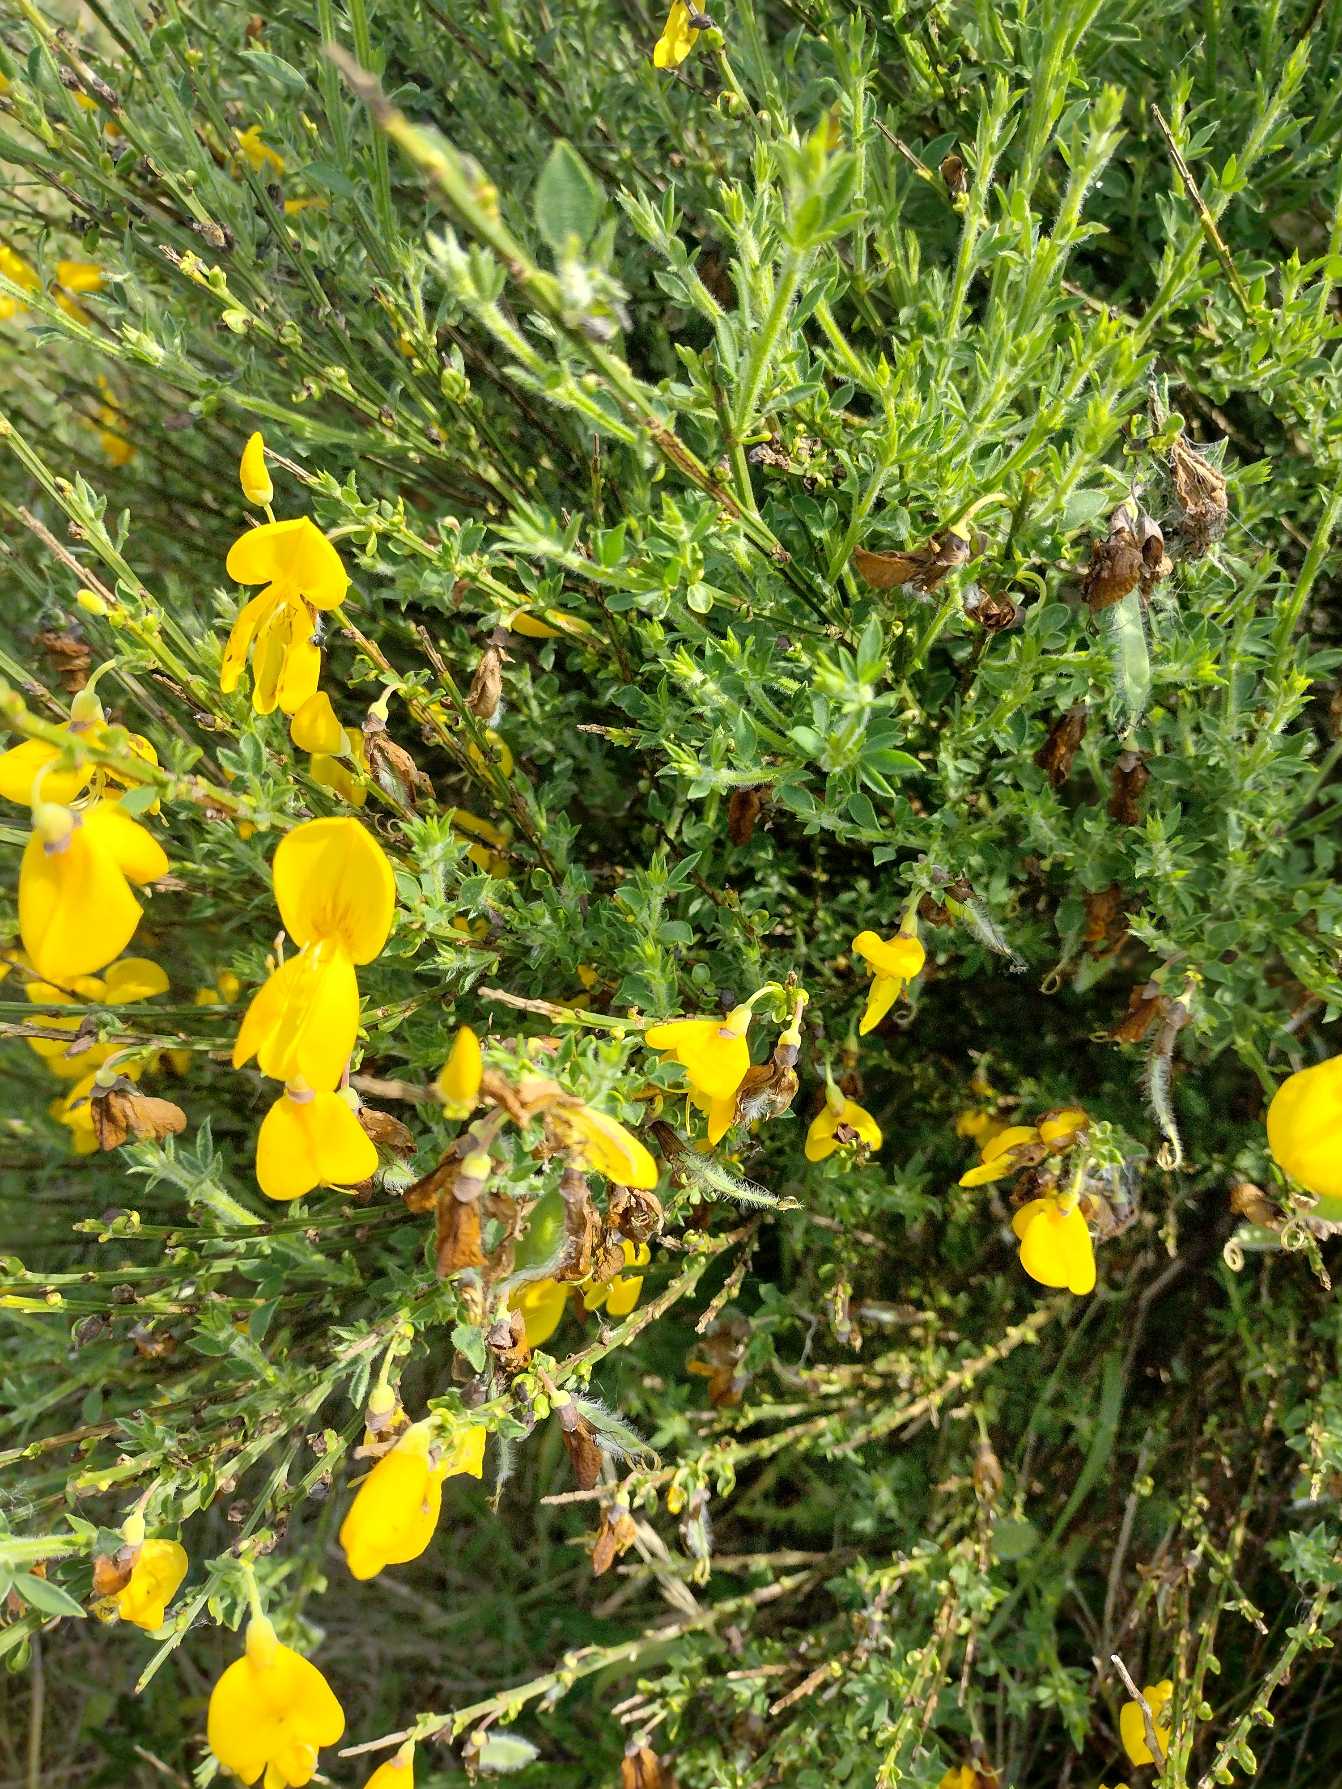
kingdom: Plantae
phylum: Tracheophyta
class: Magnoliopsida
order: Fabales
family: Fabaceae
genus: Cytisus
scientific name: Cytisus scoparius
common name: Almindelig gyvel
